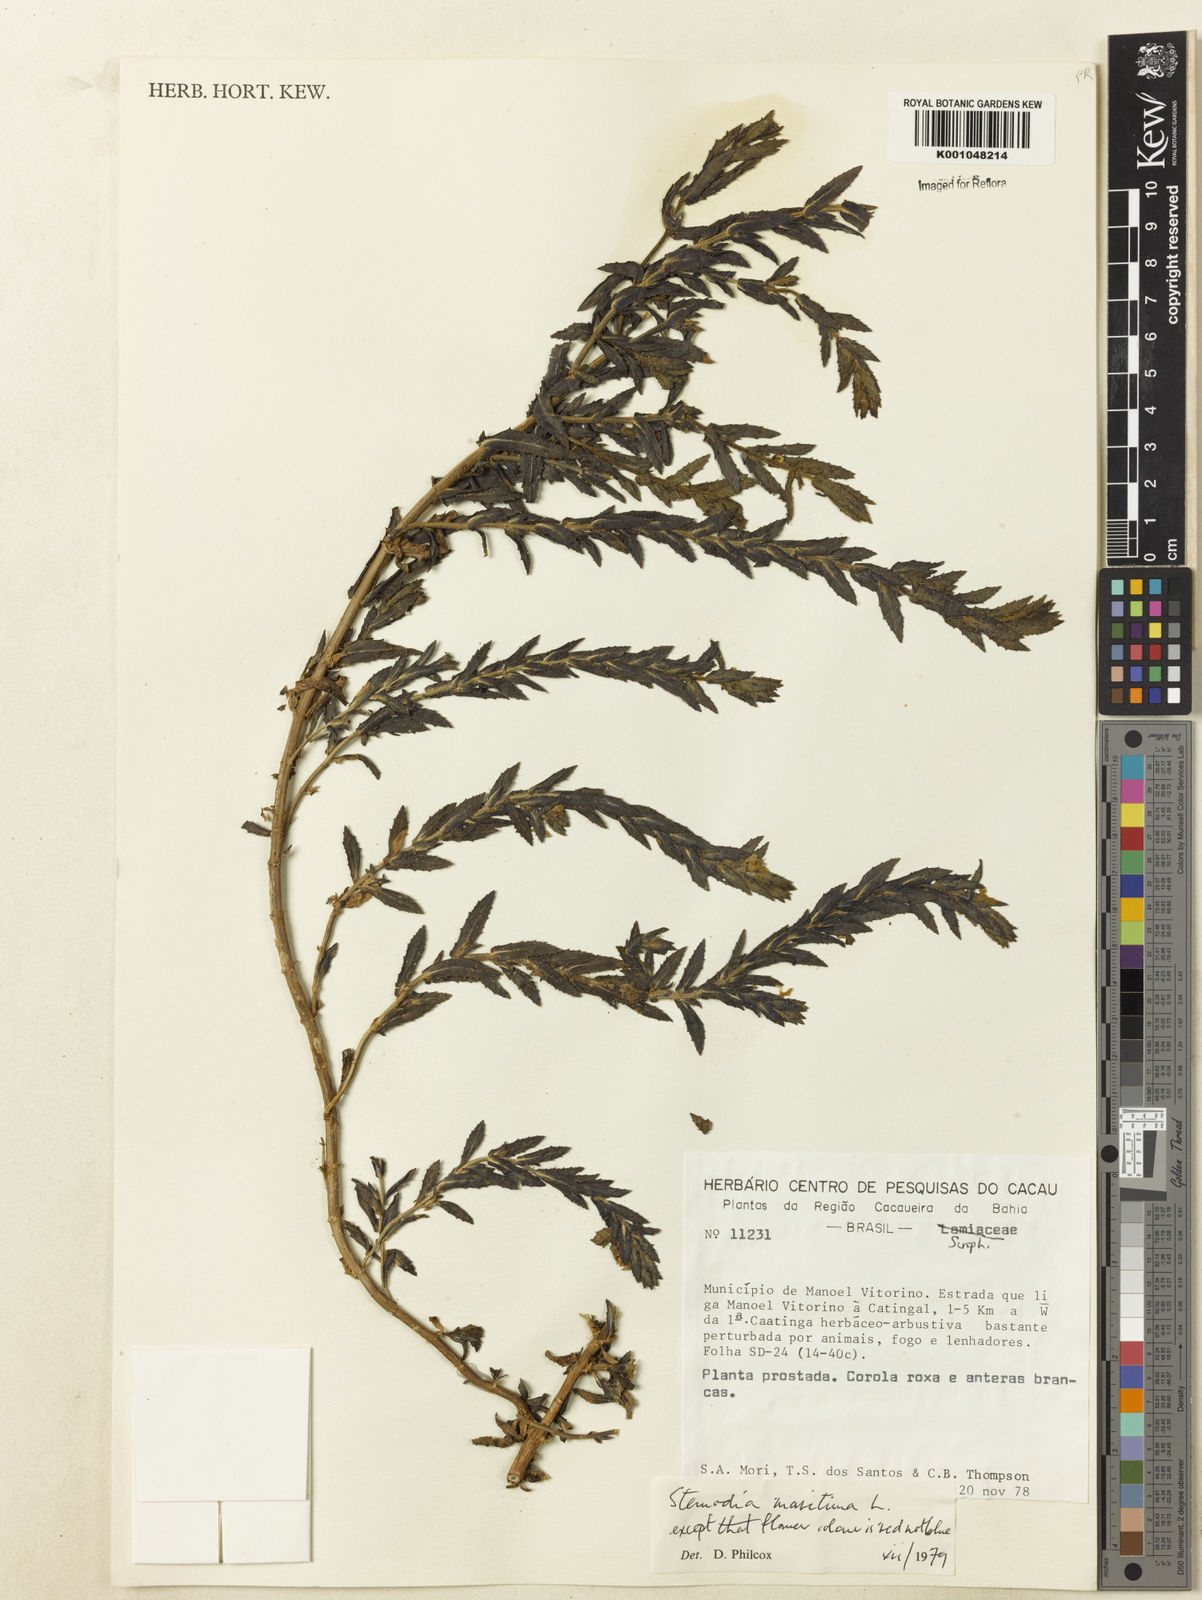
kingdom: Plantae
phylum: Tracheophyta
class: Magnoliopsida
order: Lamiales
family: Plantaginaceae
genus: Stemodia
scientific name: Stemodia maritima
